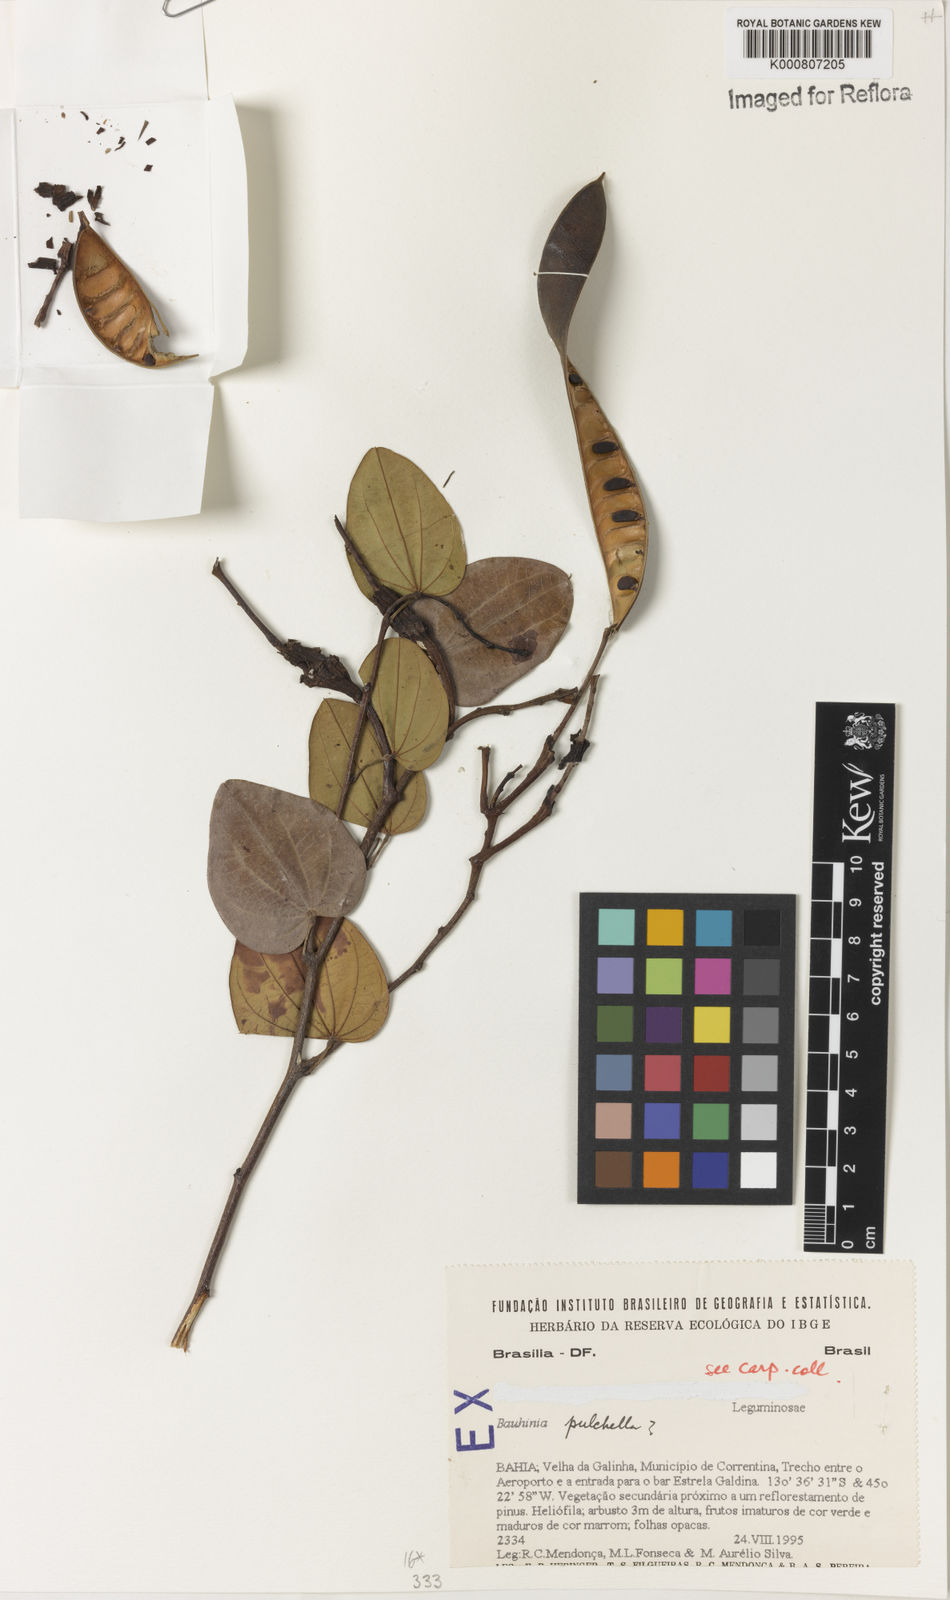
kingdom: Plantae
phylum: Tracheophyta
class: Magnoliopsida
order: Fabales
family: Fabaceae
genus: Bauhinia
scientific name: Bauhinia pulchella
